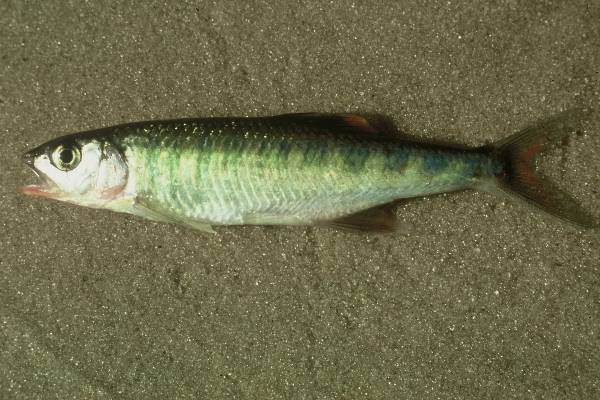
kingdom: Animalia
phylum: Chordata
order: Cypriniformes
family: Cyprinidae
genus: Opsaridium
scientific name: Opsaridium zambezense
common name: Barred minnow
